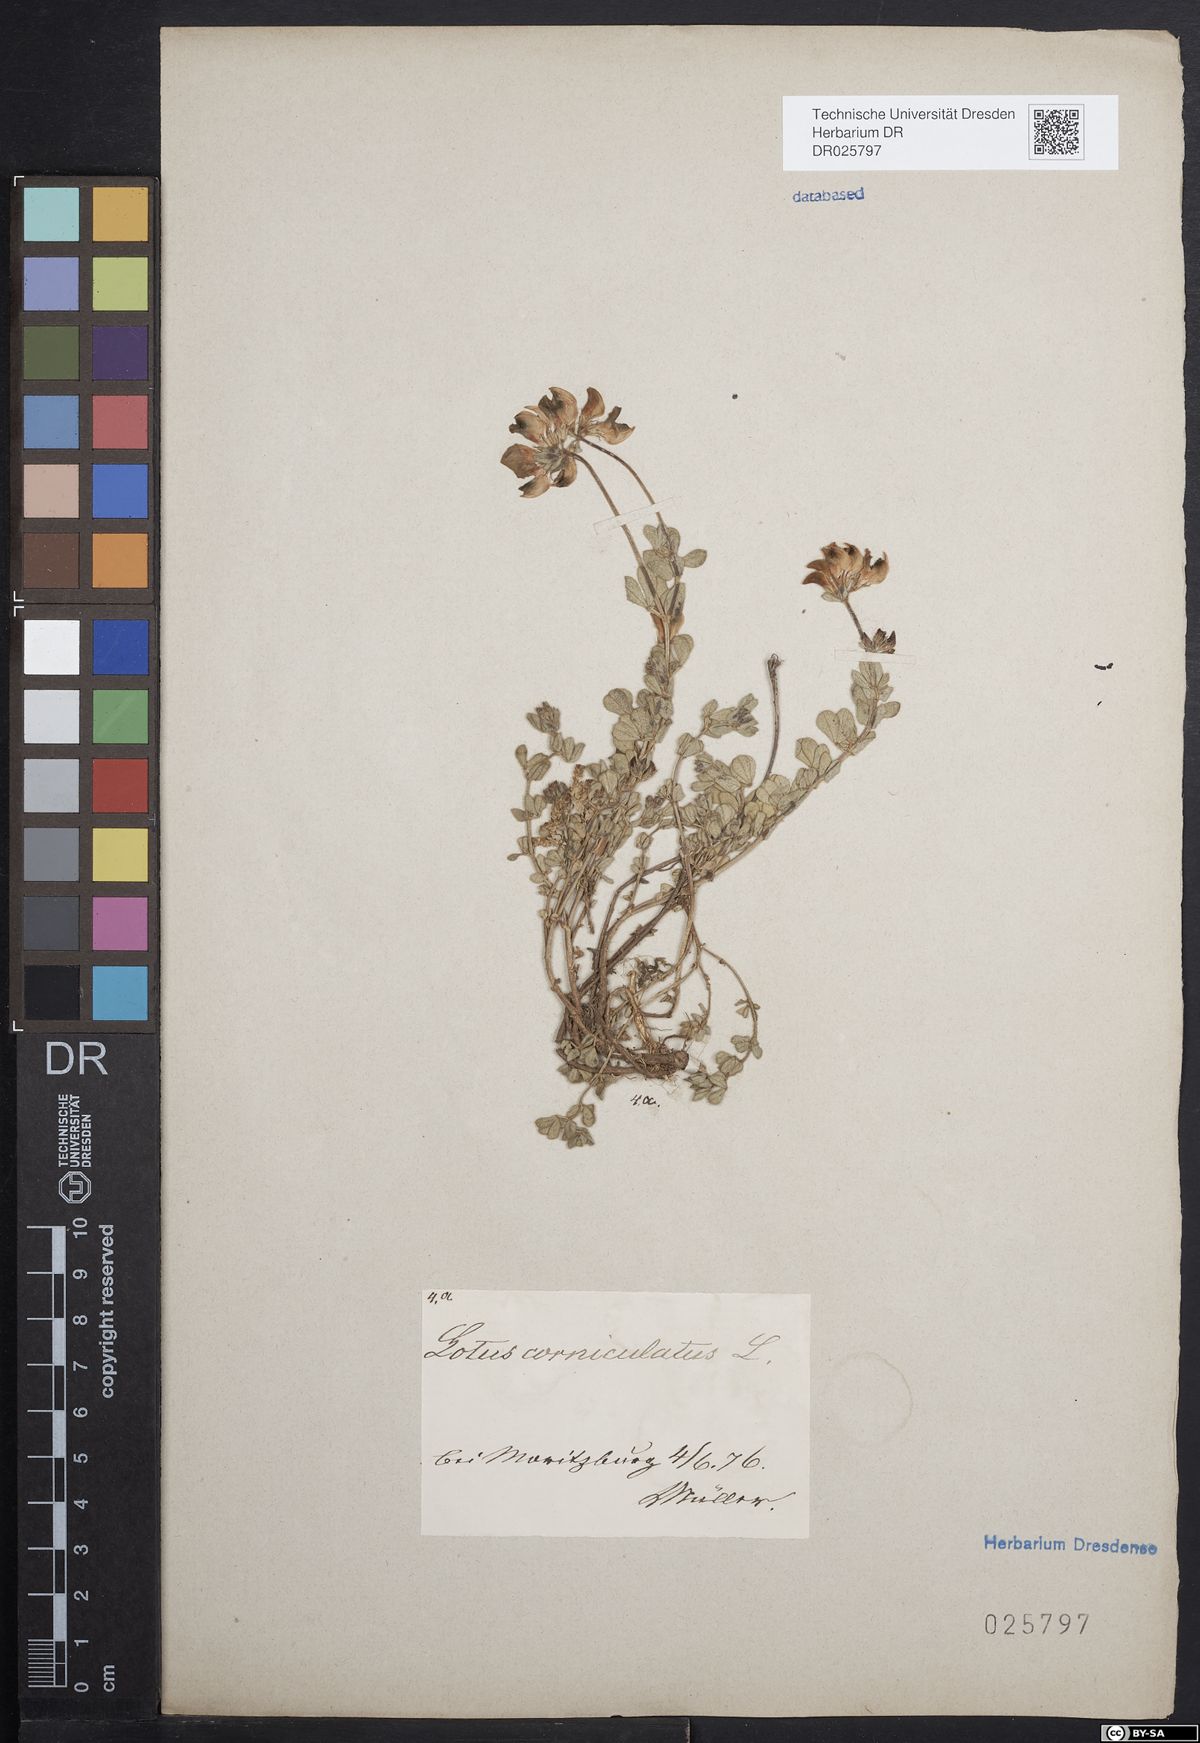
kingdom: Plantae
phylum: Tracheophyta
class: Magnoliopsida
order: Fabales
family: Fabaceae
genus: Lotus
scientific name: Lotus corniculatus
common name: Common bird's-foot-trefoil
